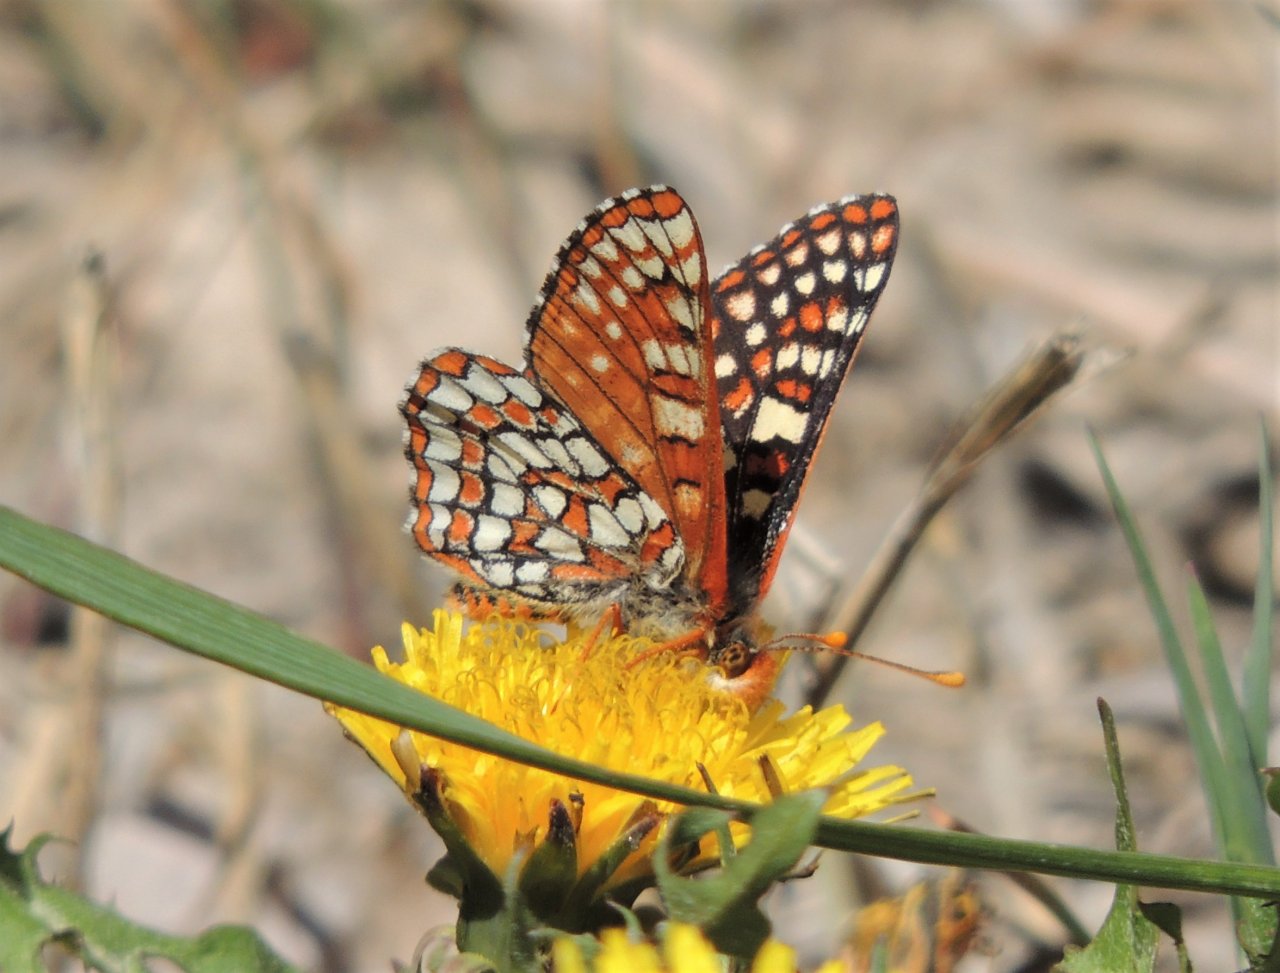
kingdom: Animalia
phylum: Arthropoda
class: Insecta
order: Lepidoptera
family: Nymphalidae
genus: Occidryas
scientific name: Occidryas anicia
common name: Anicia Checkerspot
